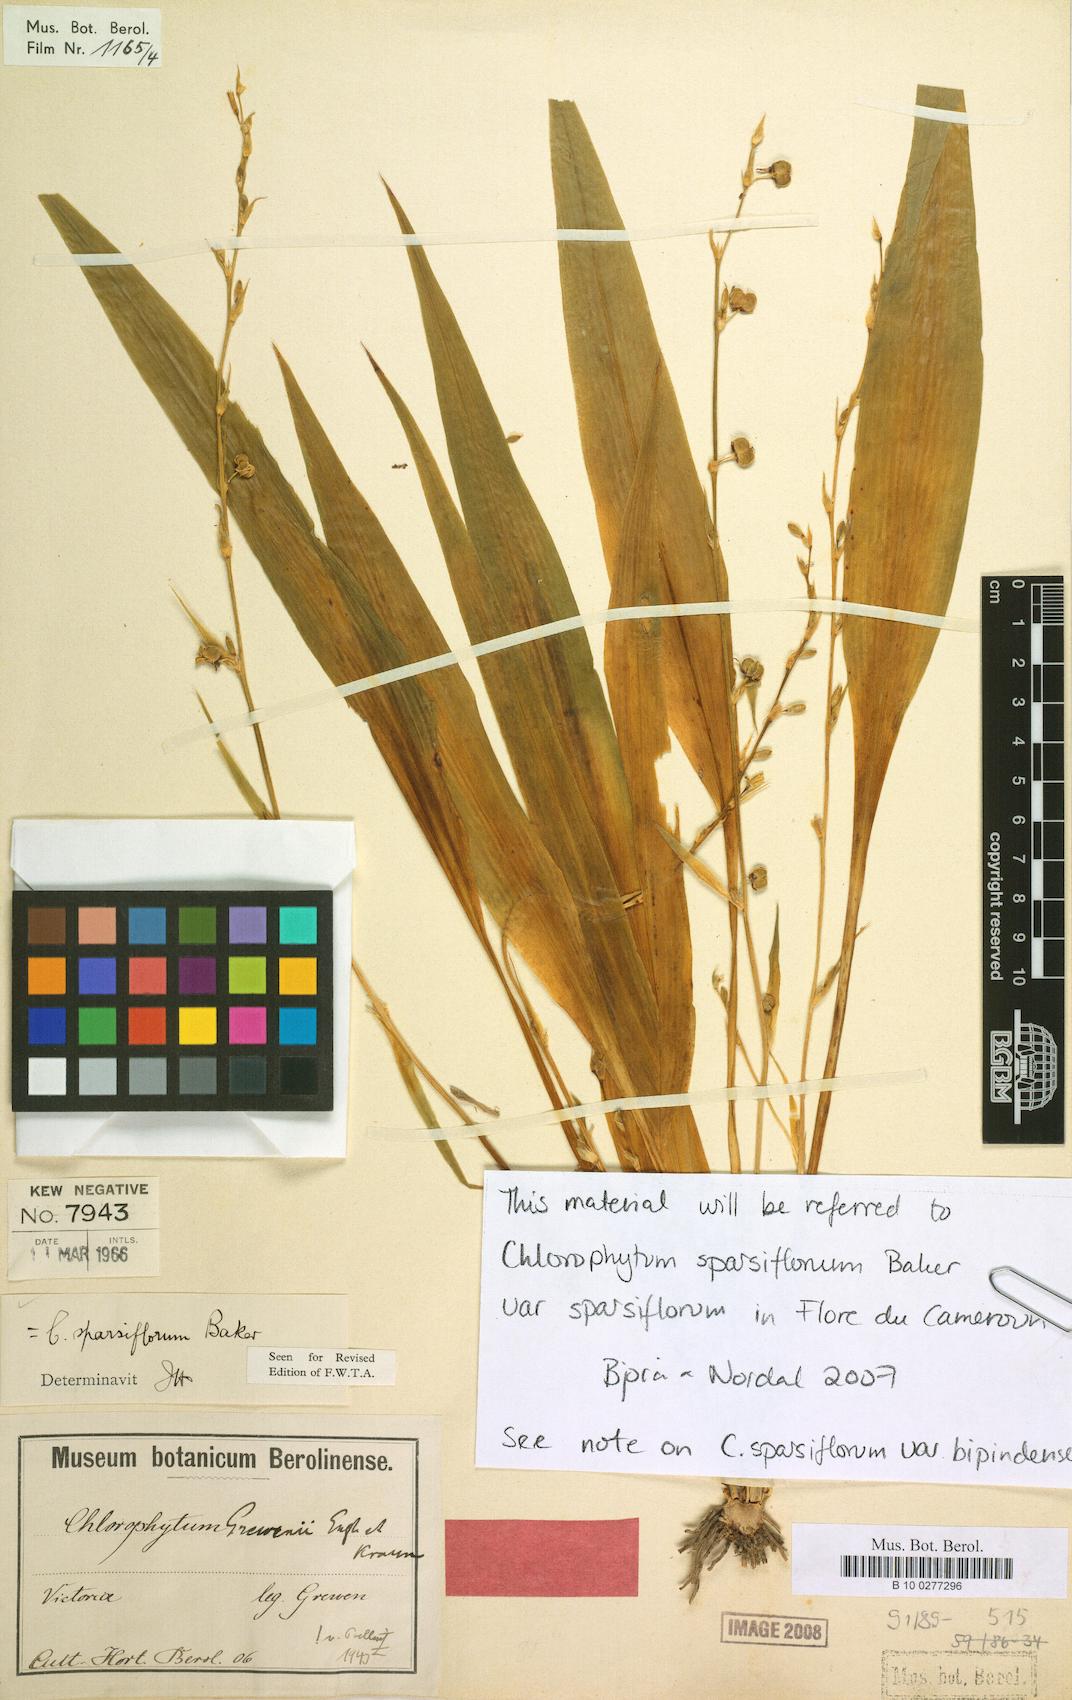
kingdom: Plantae
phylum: Tracheophyta
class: Liliopsida
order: Asparagales
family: Asparagaceae
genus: Chlorophytum
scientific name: Chlorophytum sparsiflorum
